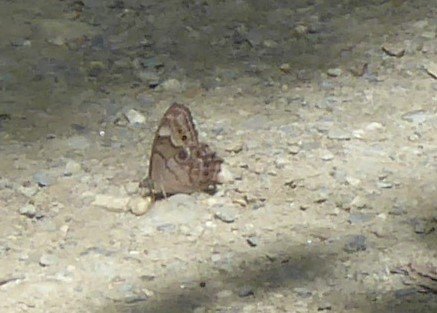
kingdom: Animalia
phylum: Arthropoda
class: Insecta
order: Lepidoptera
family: Nymphalidae
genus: Lethe
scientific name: Lethe anthedon
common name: Northern Pearly-Eye
